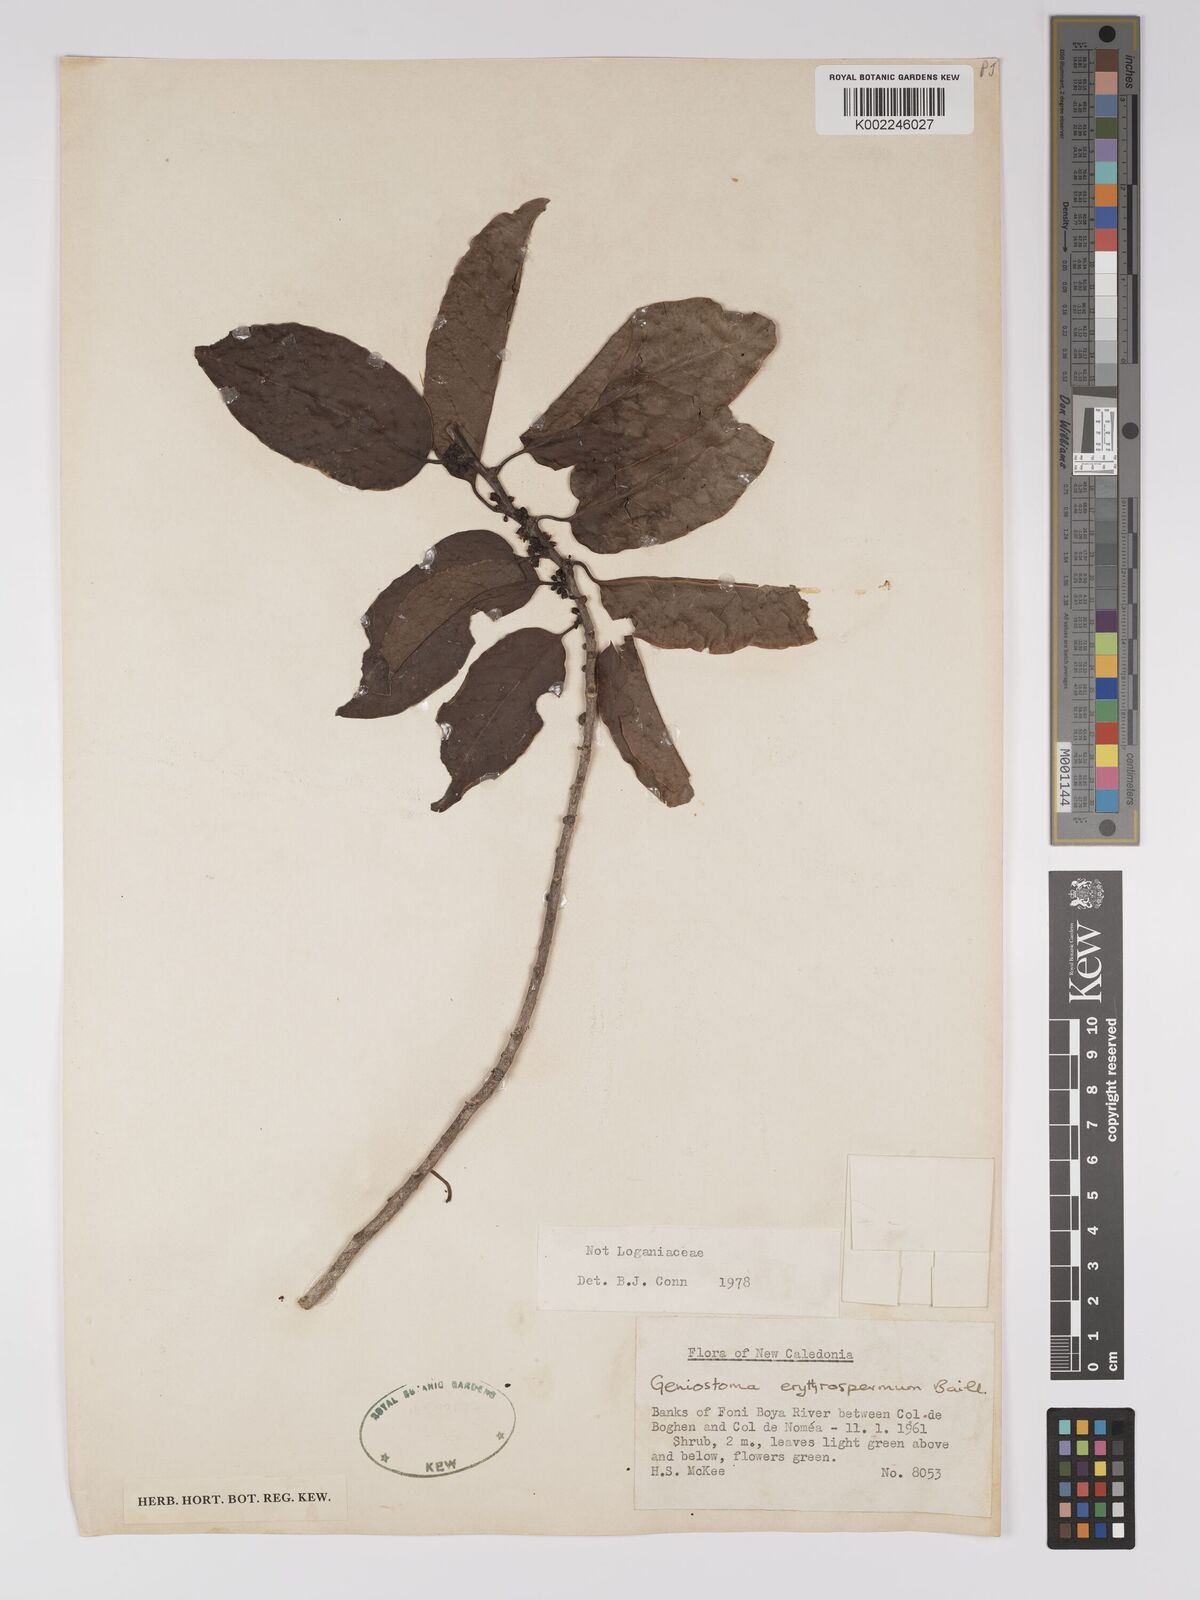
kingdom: Plantae
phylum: Tracheophyta
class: Magnoliopsida
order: Malpighiales
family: Euphorbiaceae
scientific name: Euphorbiaceae
